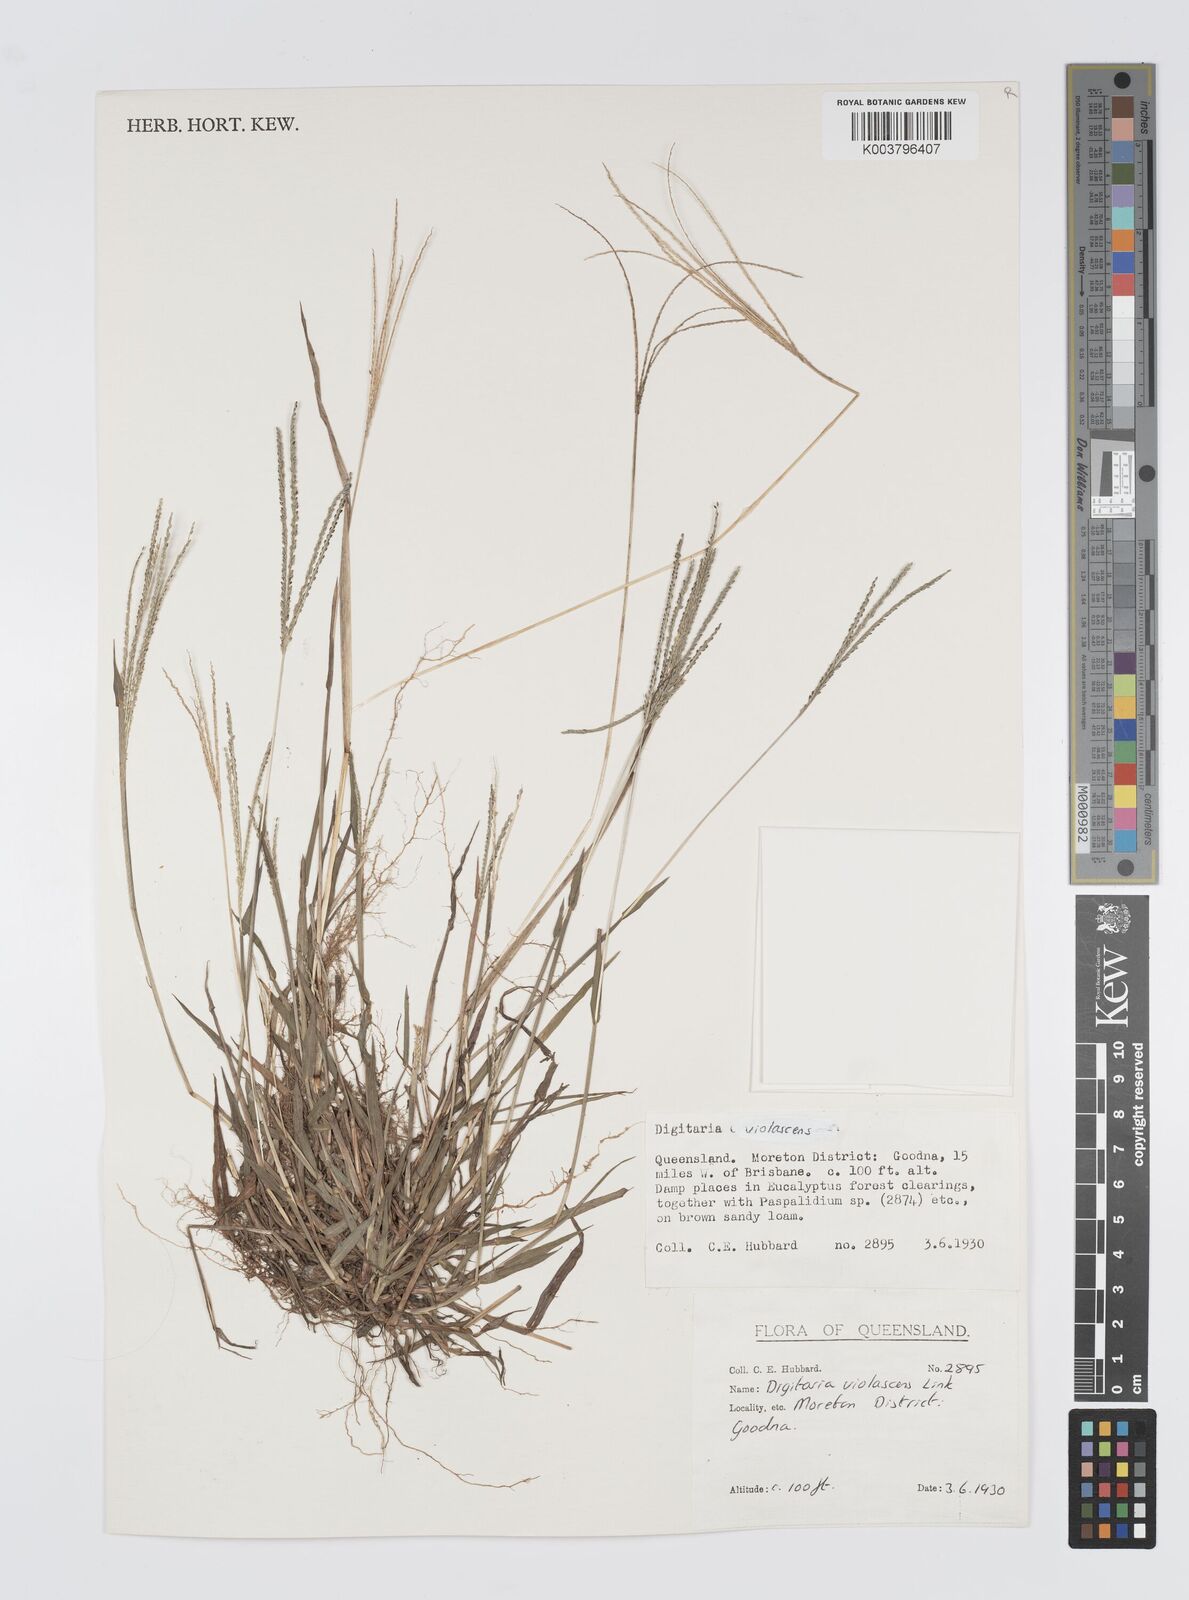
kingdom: Plantae
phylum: Tracheophyta
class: Liliopsida
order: Poales
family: Poaceae
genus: Digitaria
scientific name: Digitaria violascens
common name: Violet crabgrass
